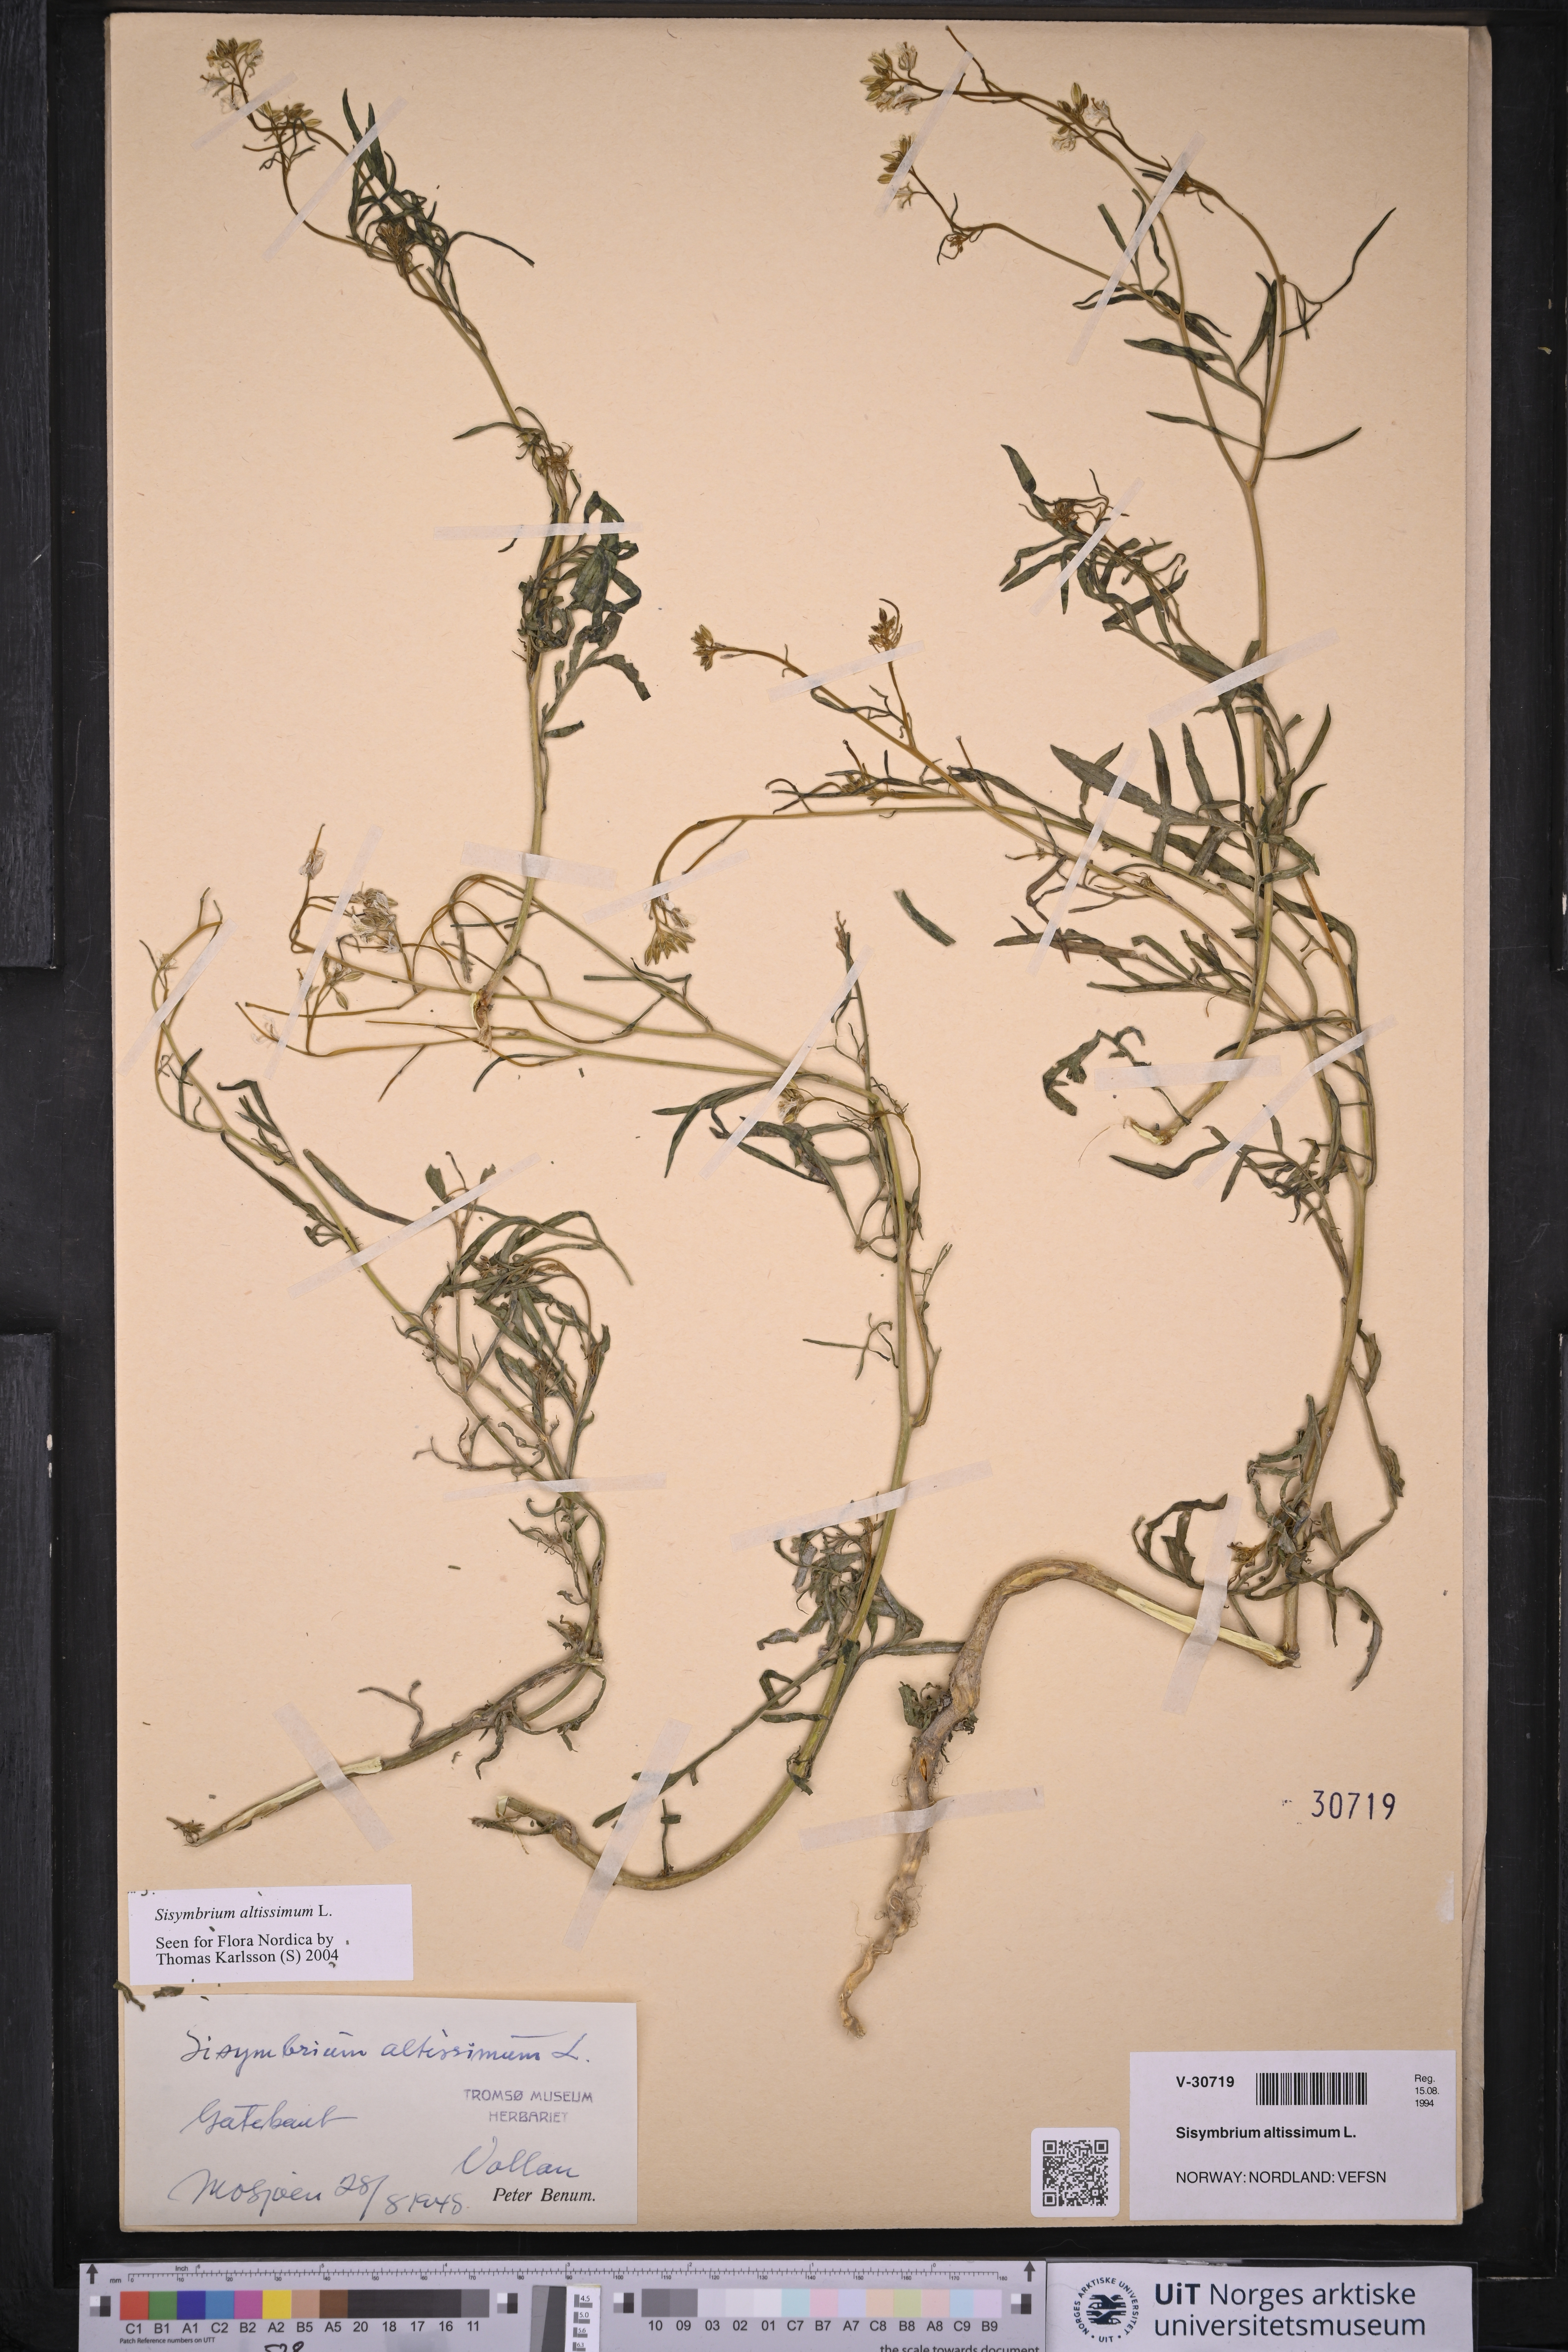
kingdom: Plantae
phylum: Tracheophyta
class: Magnoliopsida
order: Brassicales
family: Brassicaceae
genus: Sisymbrium
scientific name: Sisymbrium altissimum
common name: Tall rocket
